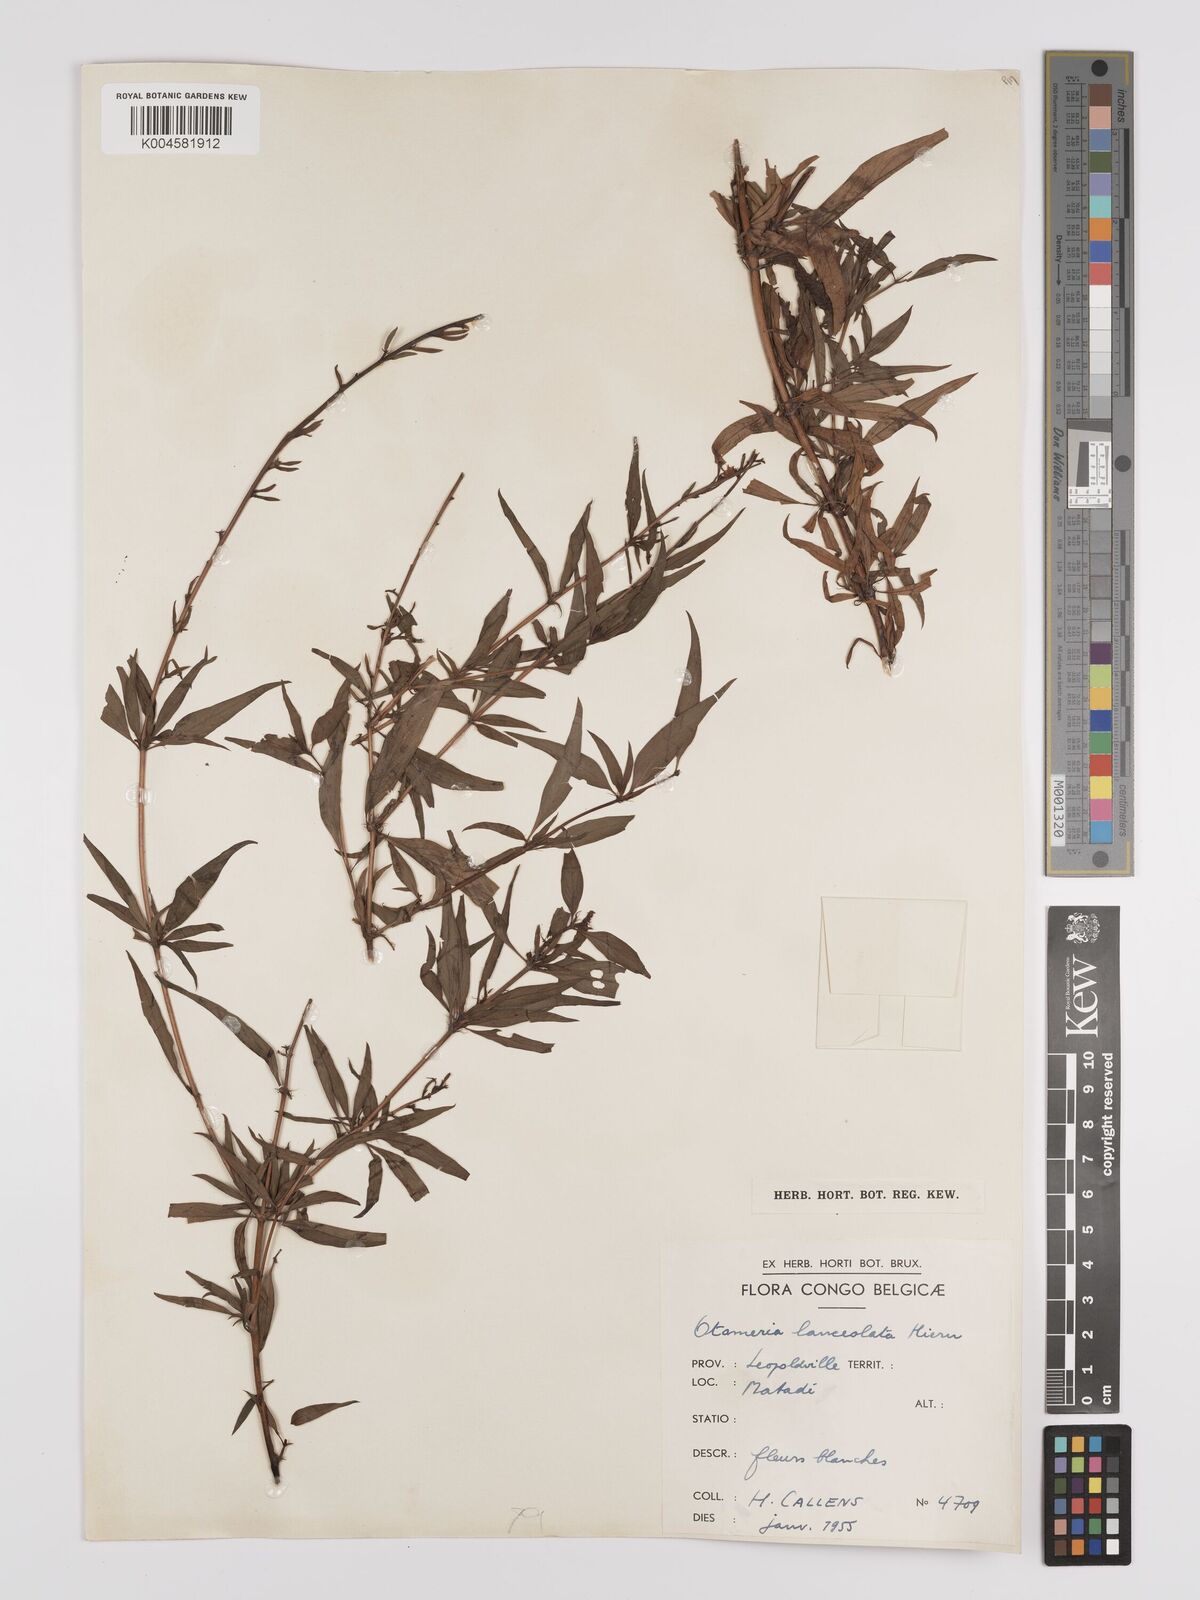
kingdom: Plantae
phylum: Tracheophyta
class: Magnoliopsida
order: Gentianales
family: Rubiaceae
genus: Otomeria
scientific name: Otomeria lanceolata
